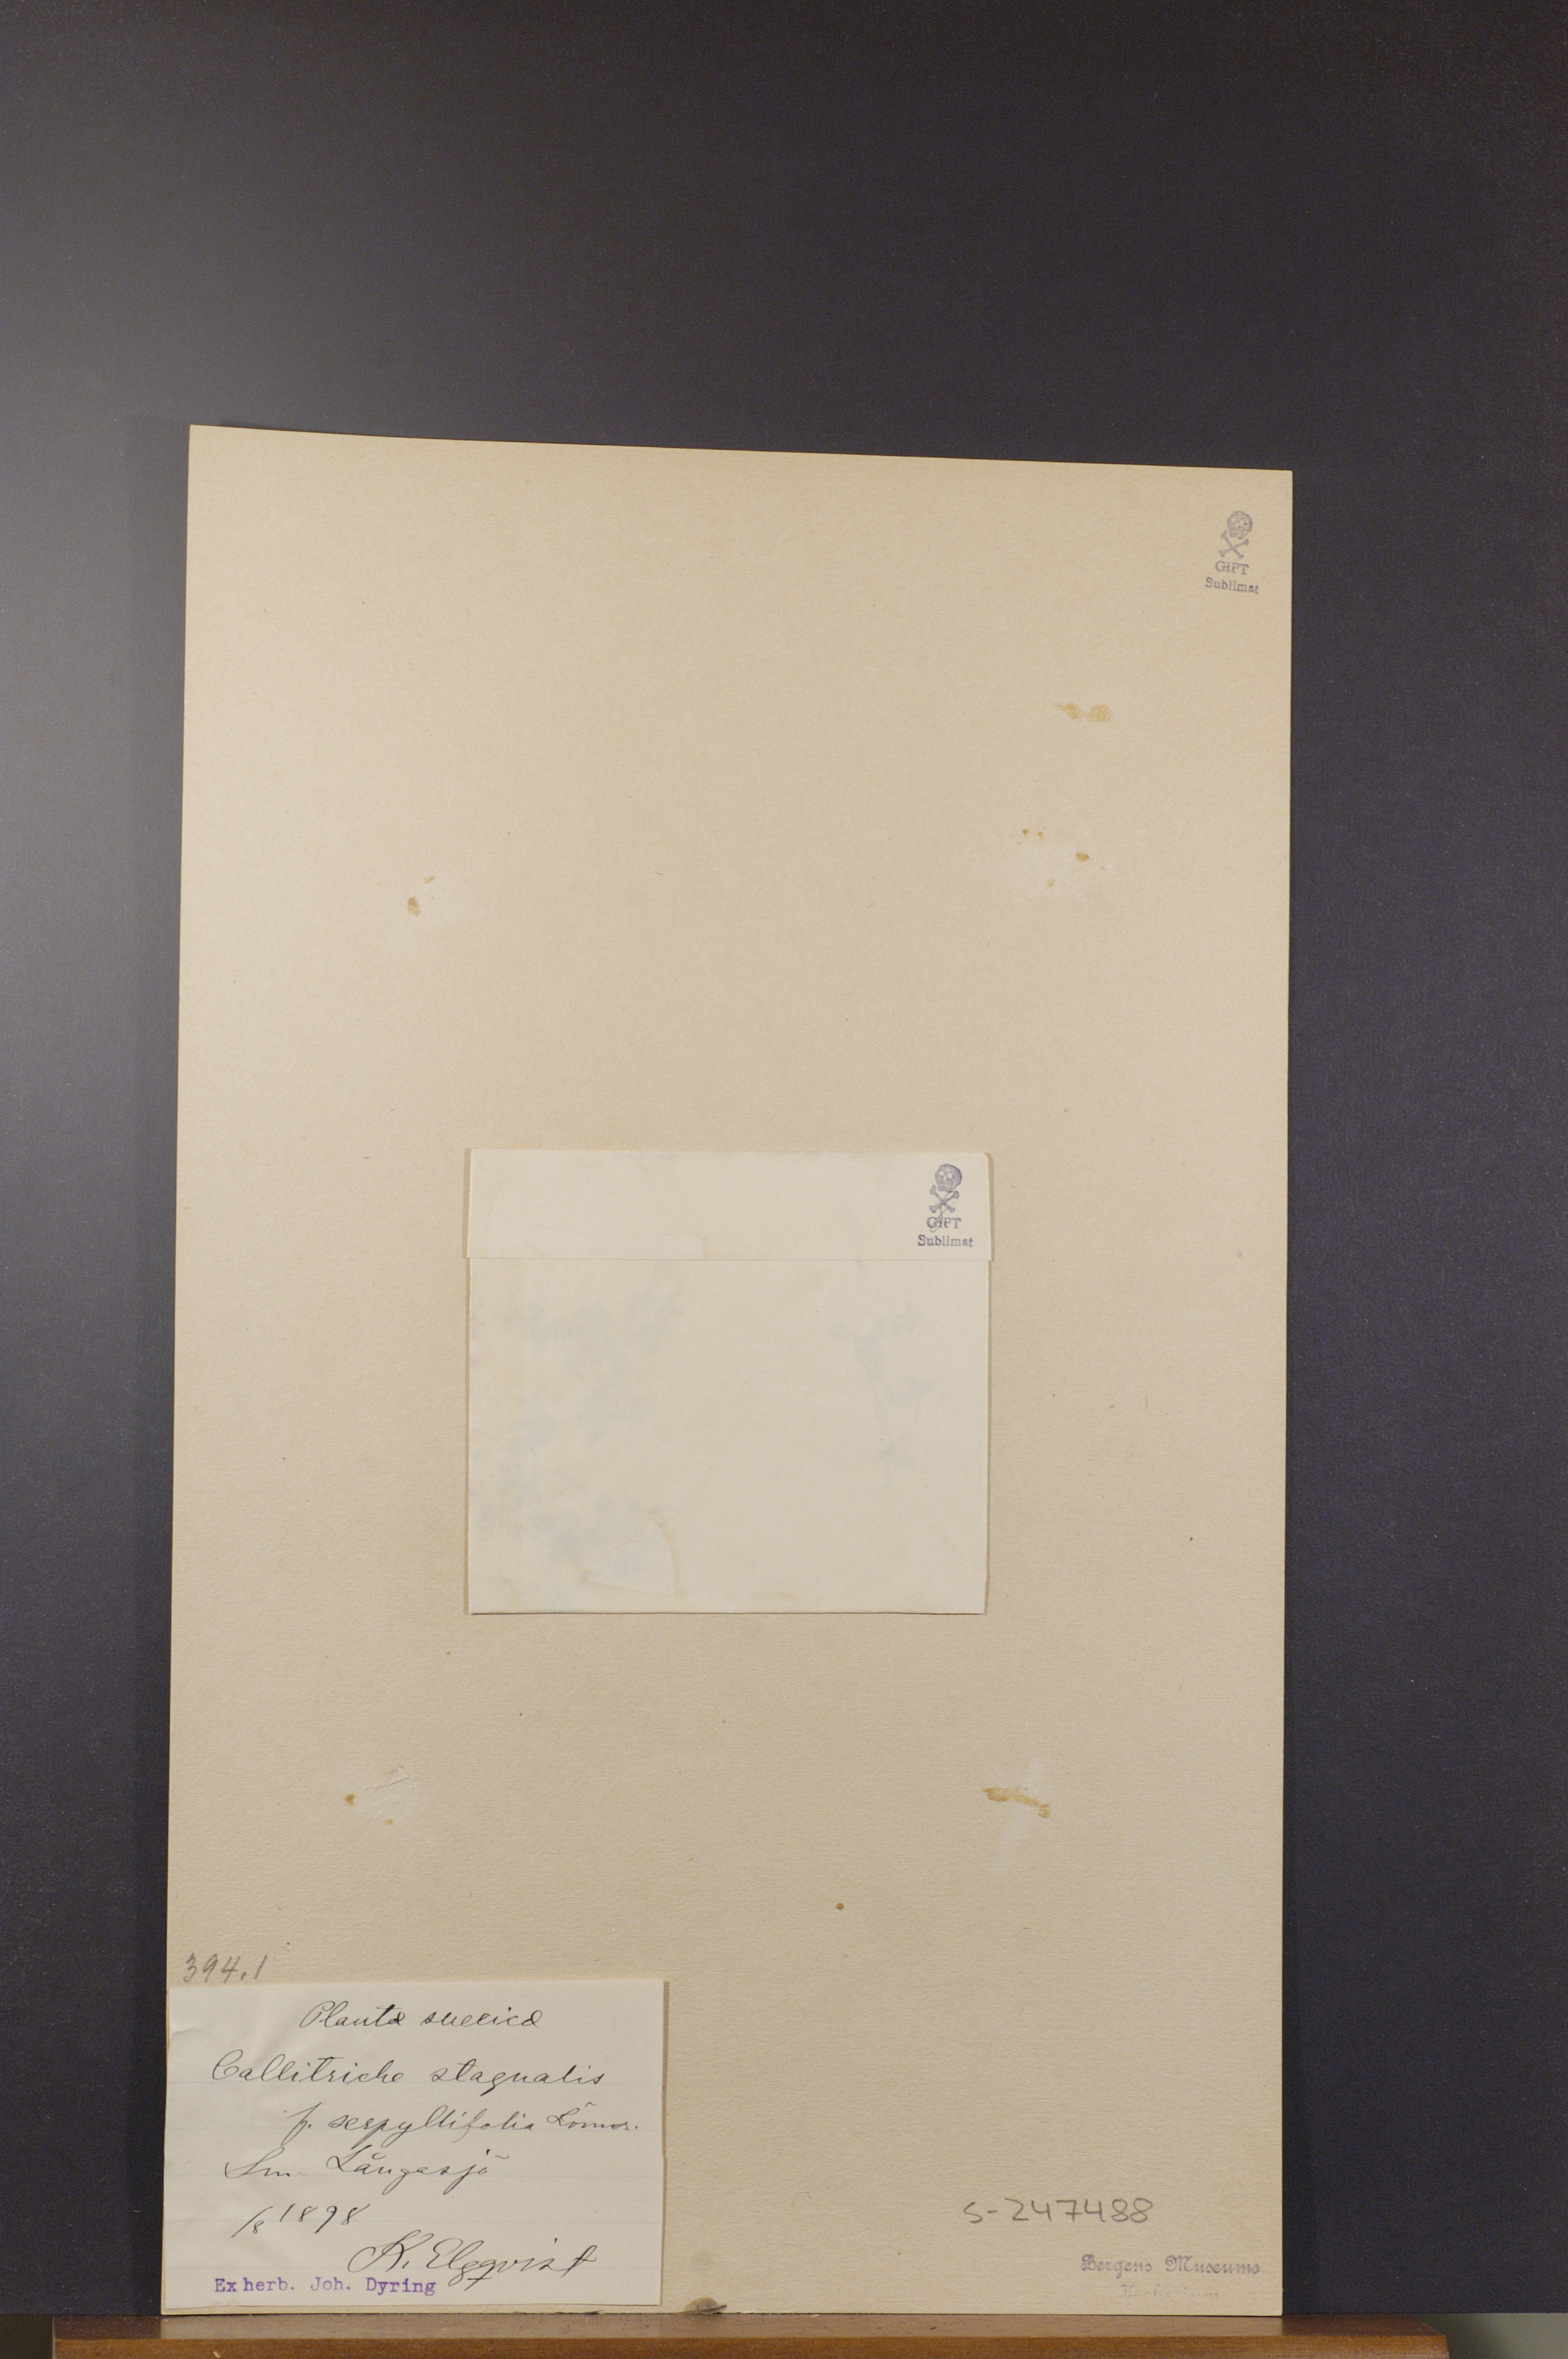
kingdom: Plantae
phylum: Tracheophyta
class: Magnoliopsida
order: Lamiales
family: Plantaginaceae
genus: Callitriche
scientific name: Callitriche stagnalis
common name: Common water-starwort
